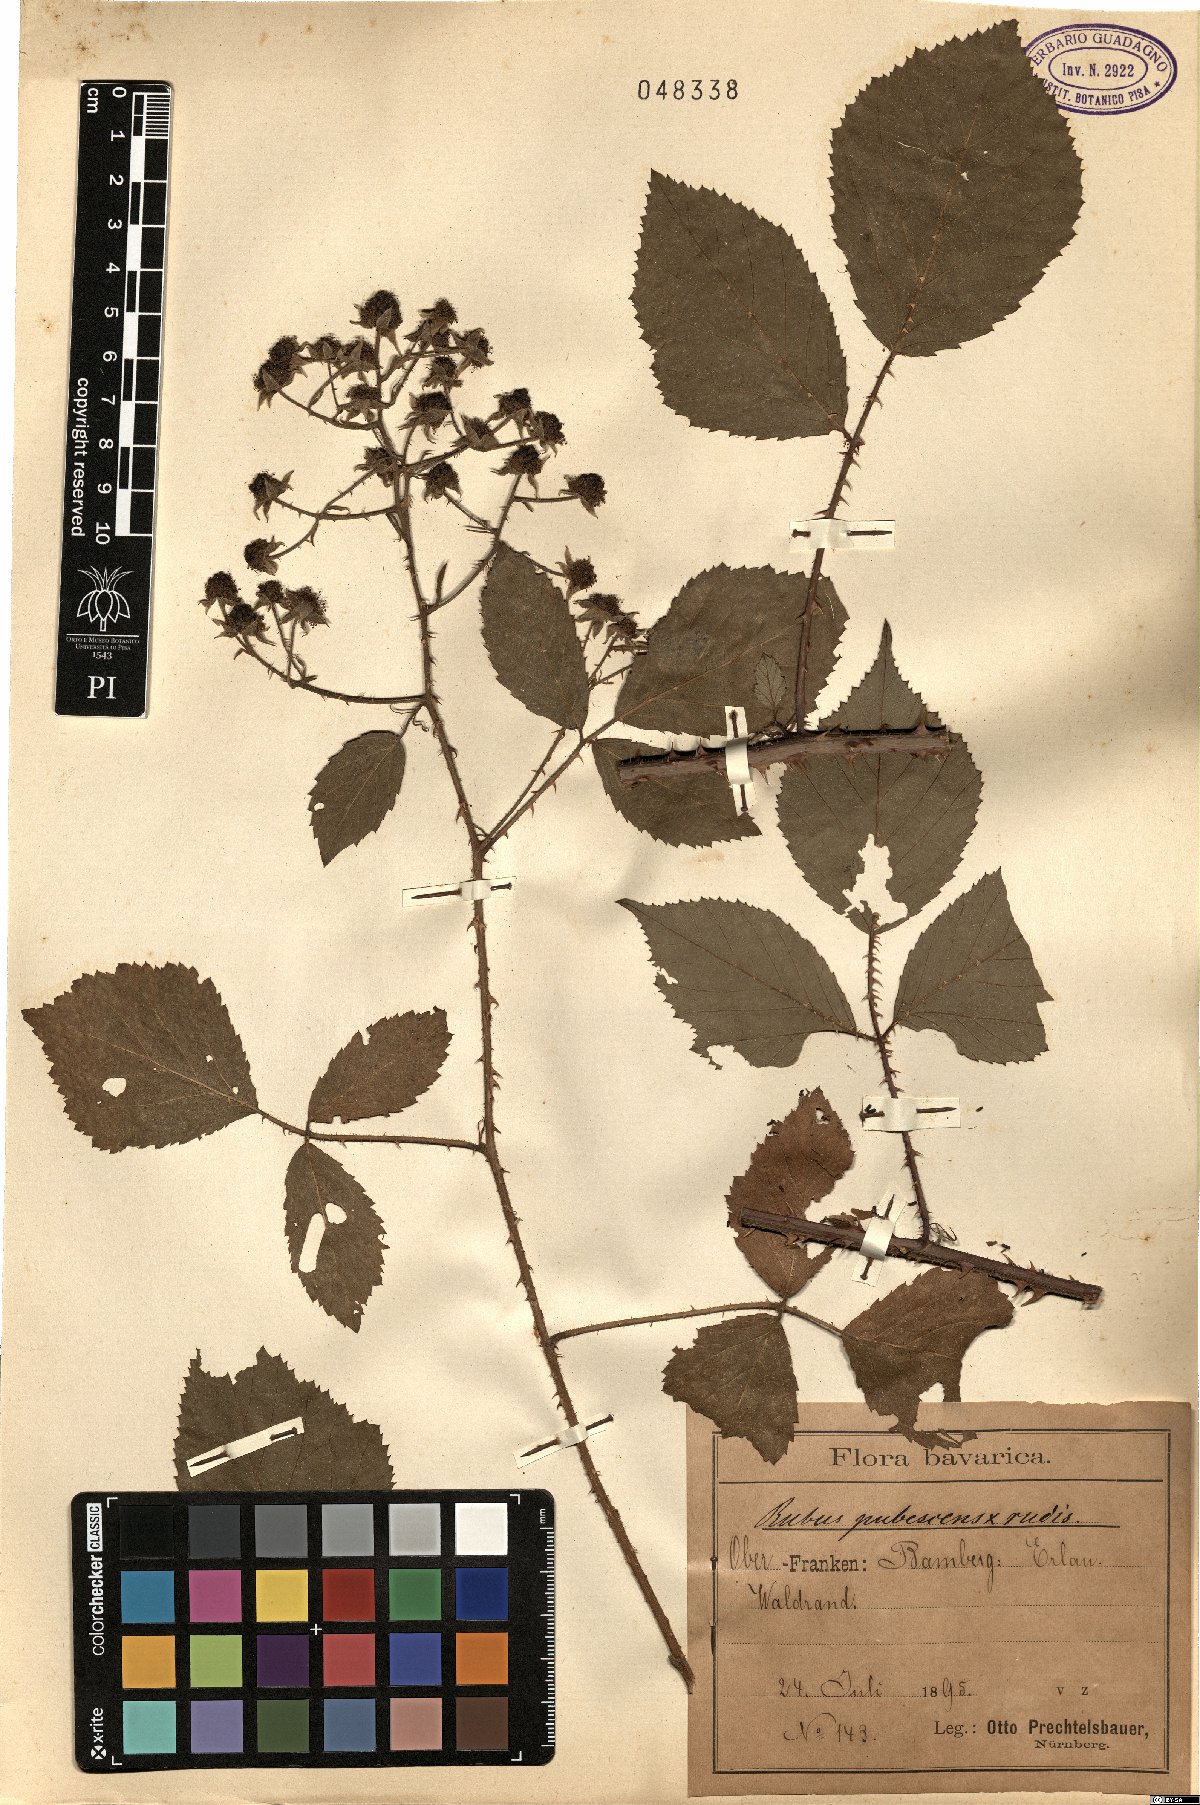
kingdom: Plantae
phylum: Tracheophyta
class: Magnoliopsida
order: Rosales
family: Rosaceae
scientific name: Rosaceae
